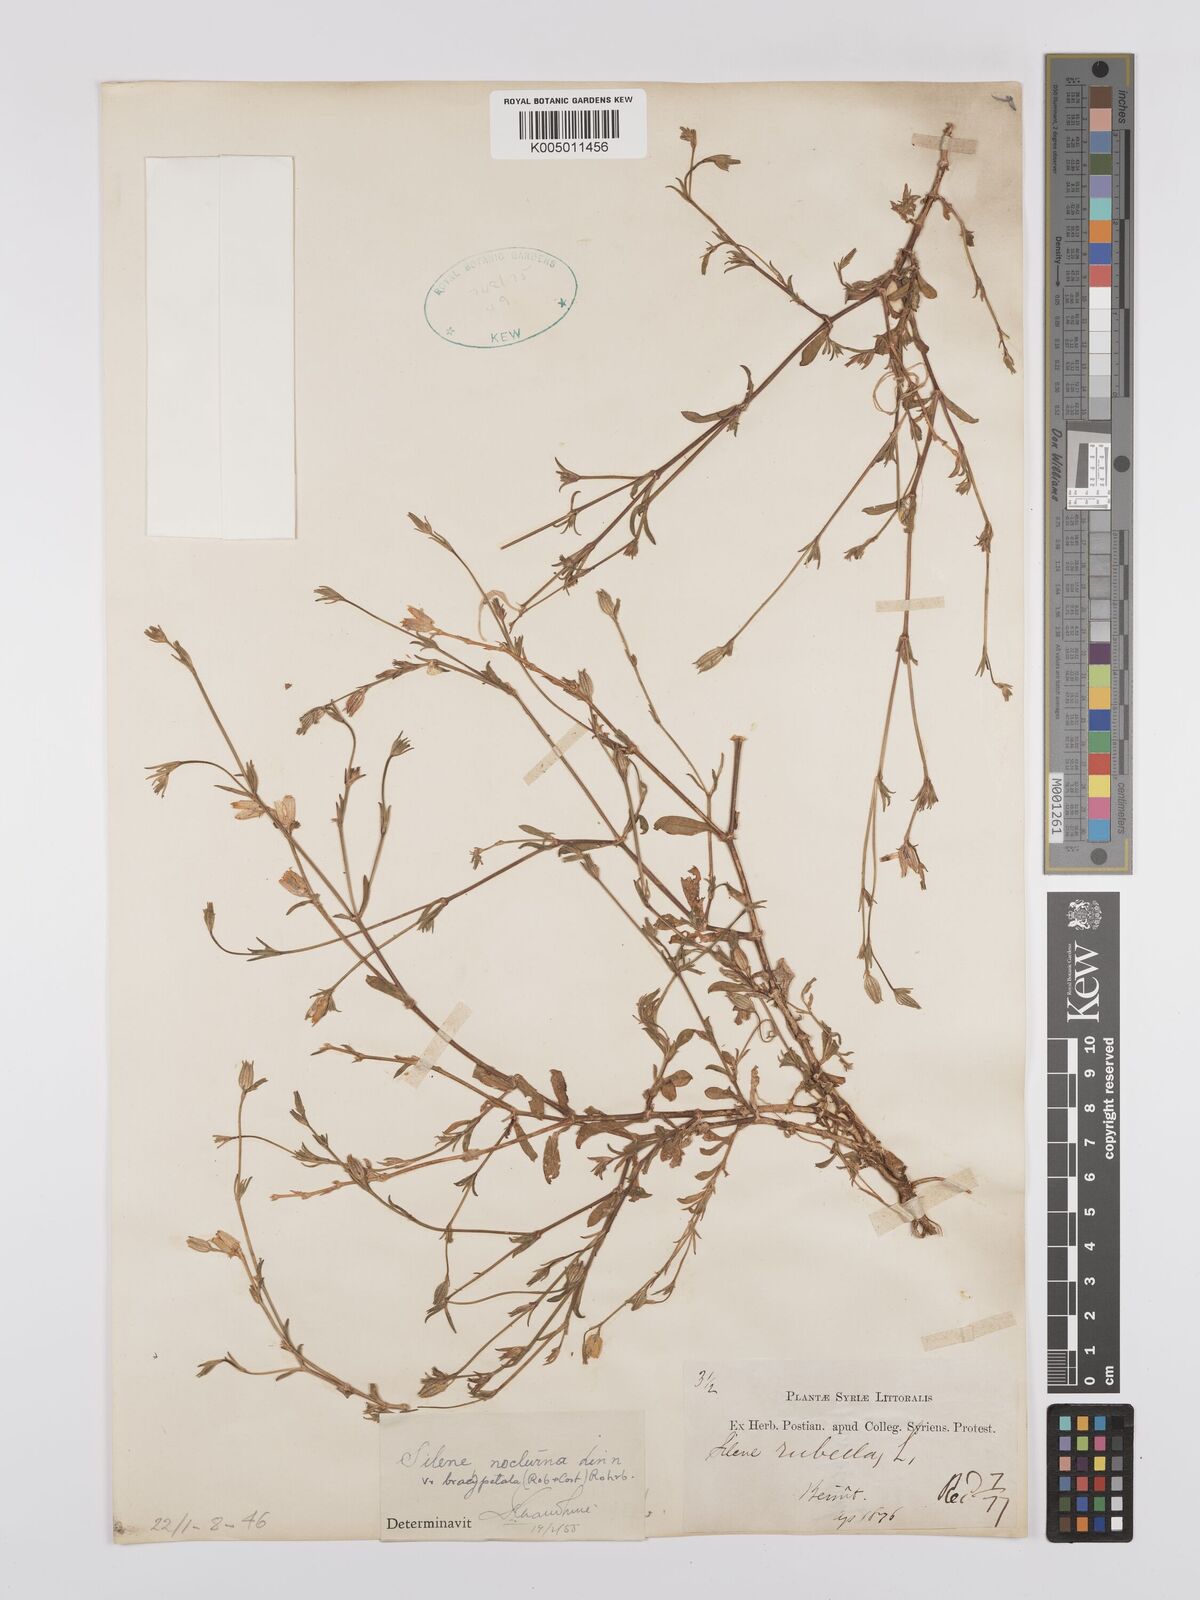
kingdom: Plantae
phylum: Tracheophyta
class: Magnoliopsida
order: Caryophyllales
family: Caryophyllaceae
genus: Silene
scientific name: Silene nocturna
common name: Mediterranean catchfly
